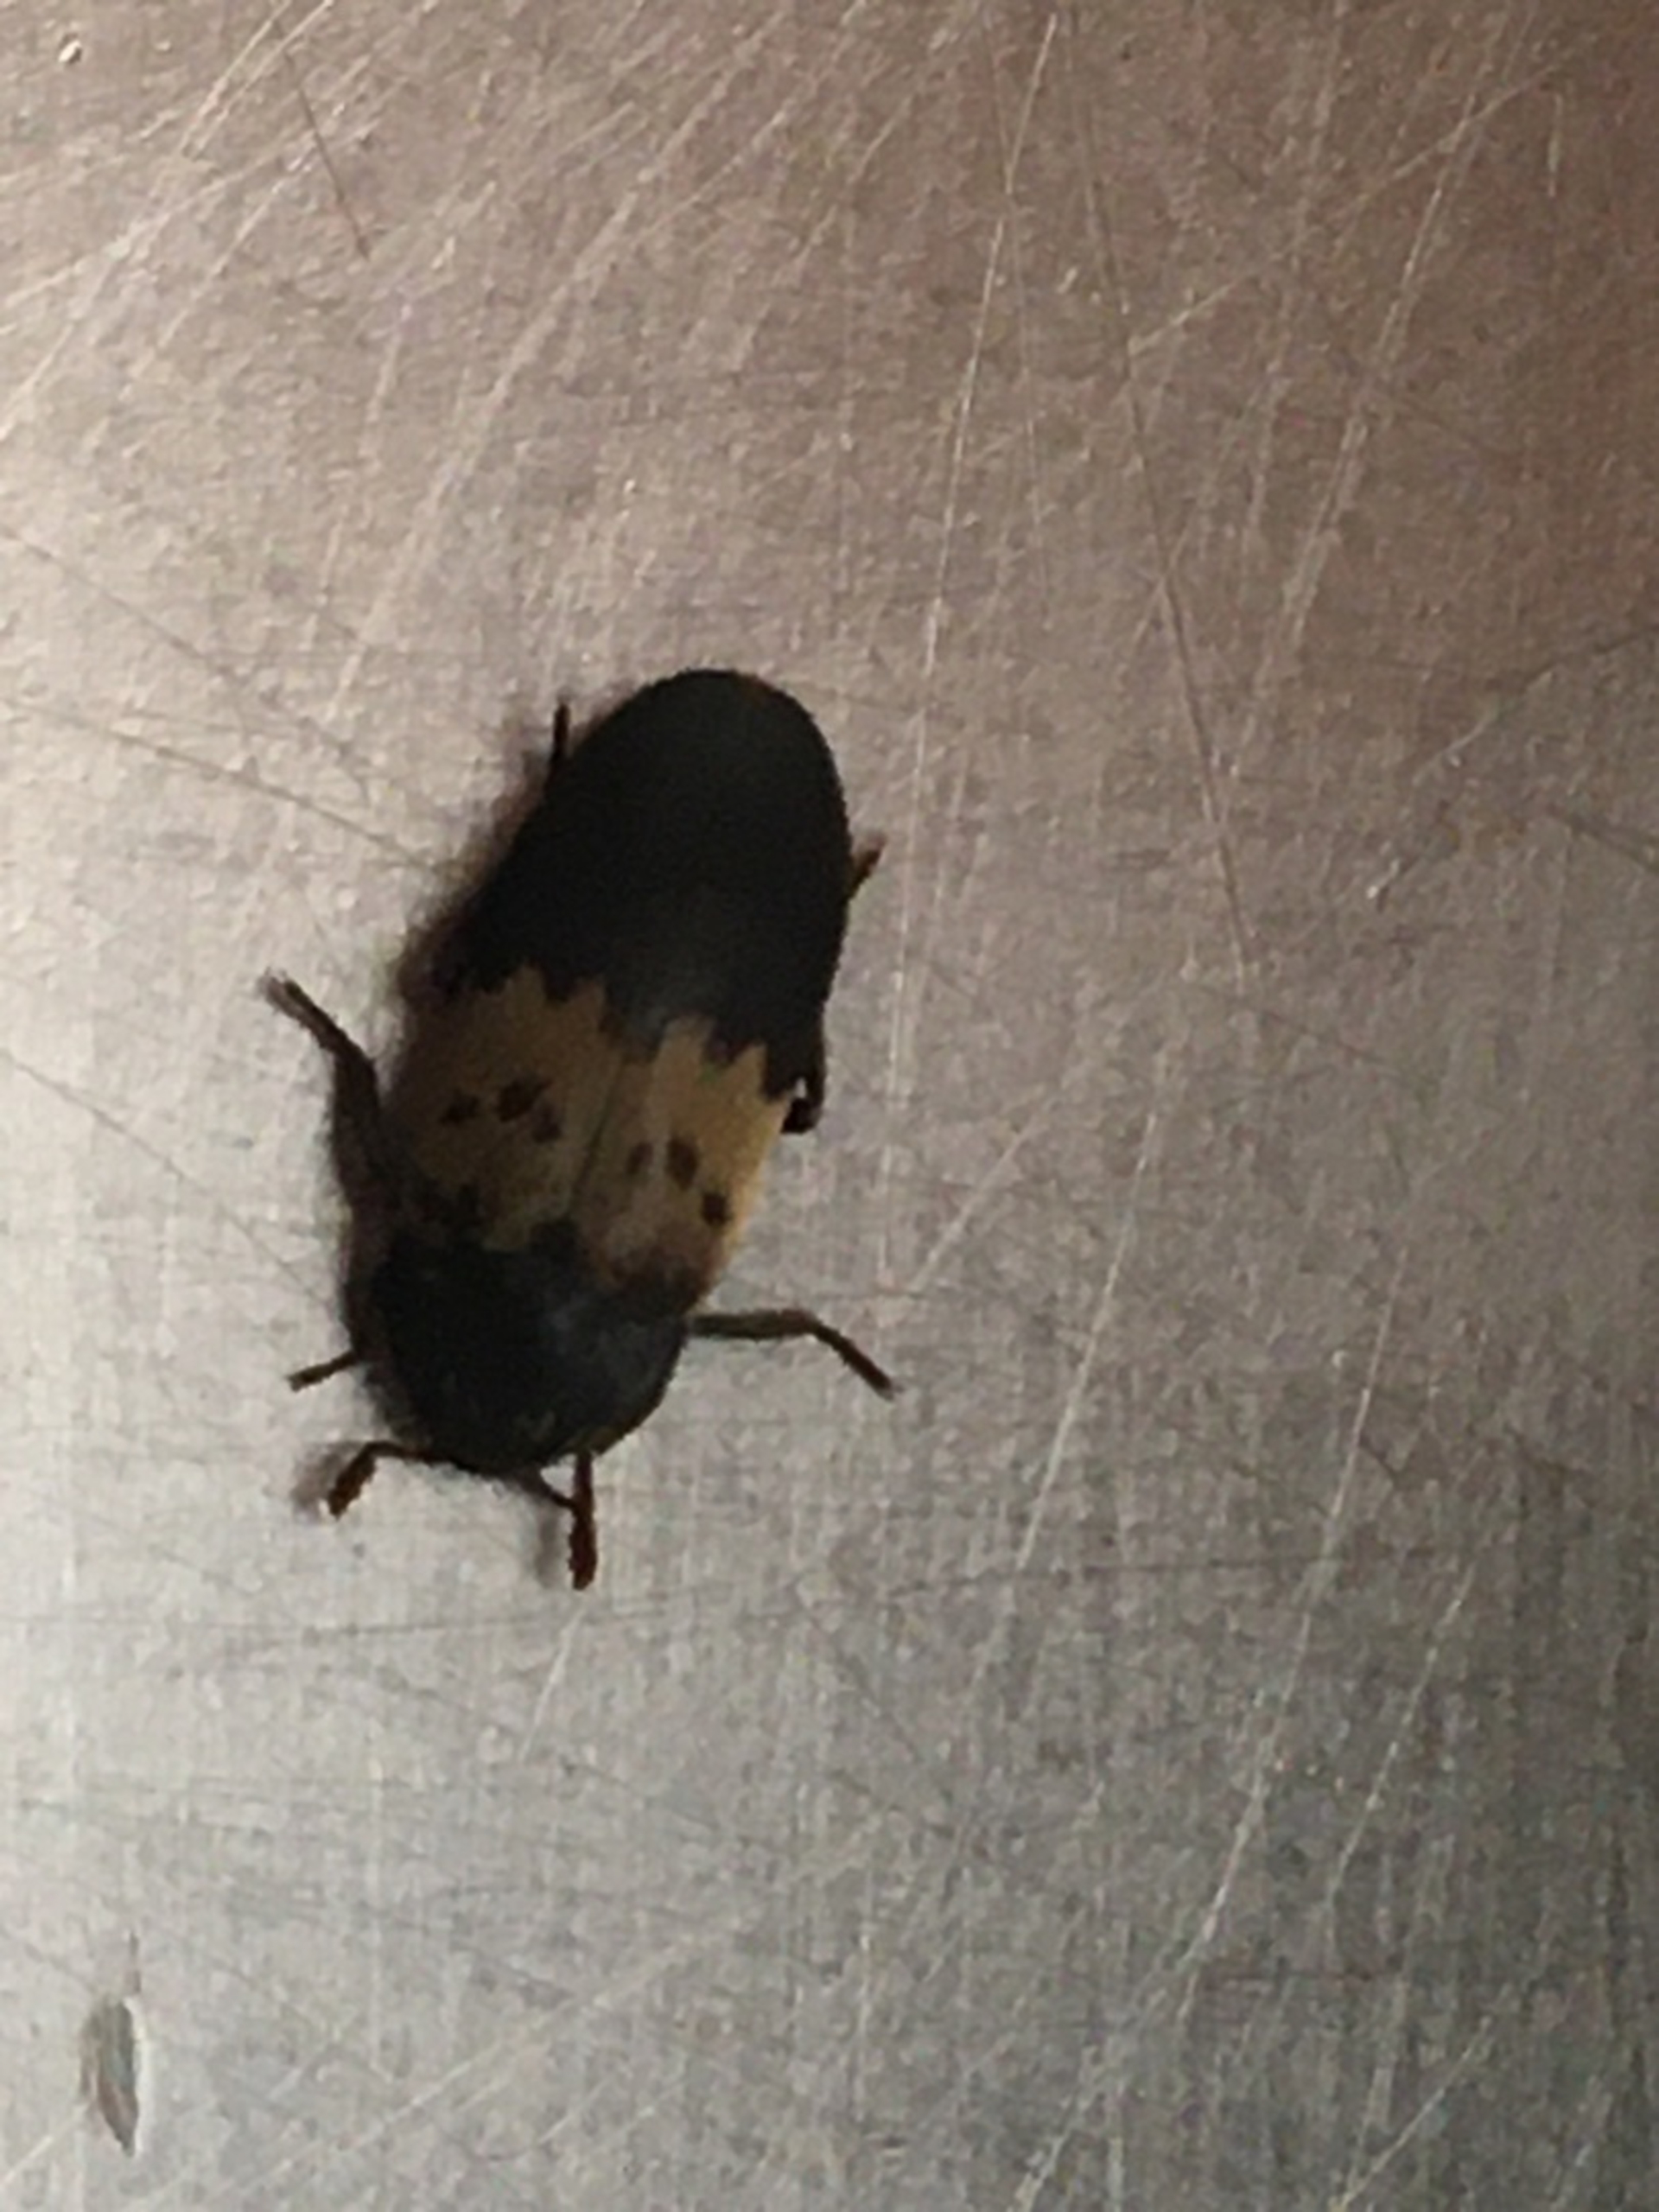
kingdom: Animalia
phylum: Arthropoda
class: Insecta
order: Coleoptera
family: Dermestidae
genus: Dermestes
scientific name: Dermestes lardarius
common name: Flæskeklanner
